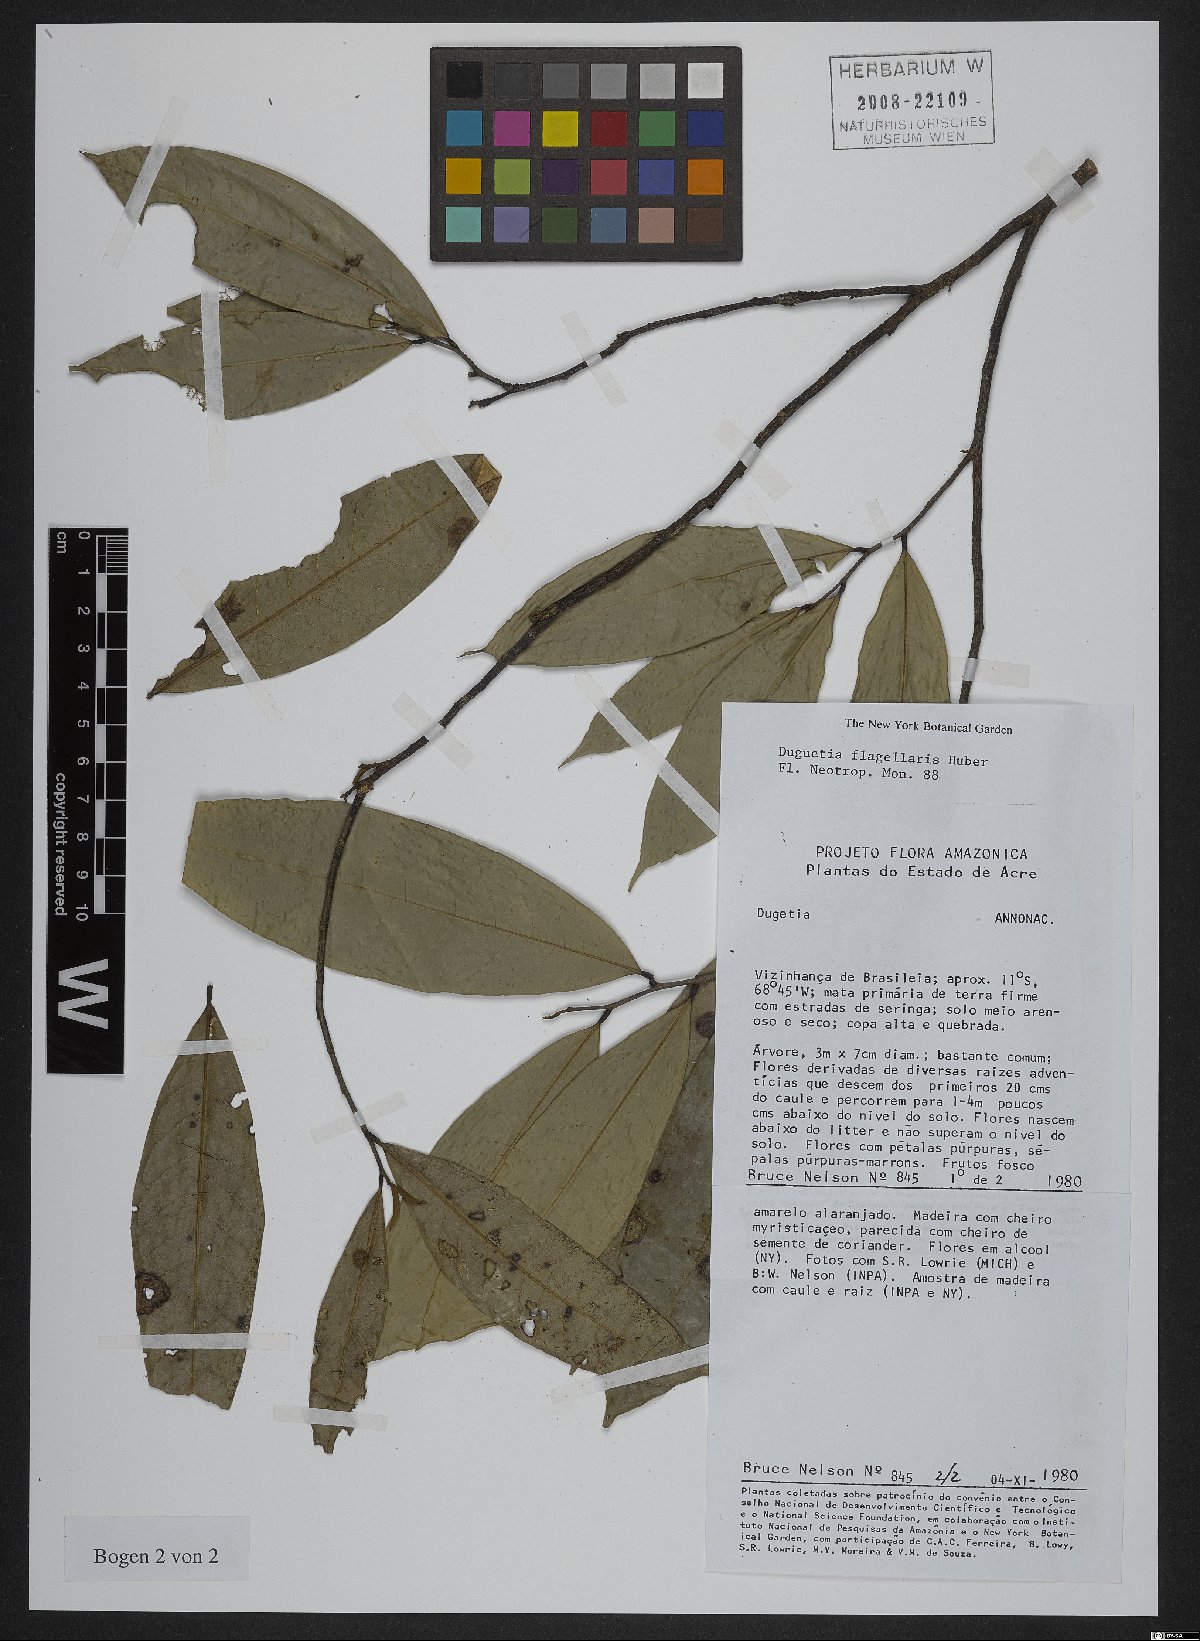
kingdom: Plantae
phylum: Tracheophyta
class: Magnoliopsida
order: Magnoliales
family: Annonaceae
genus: Duguetia
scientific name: Duguetia flagellaris
